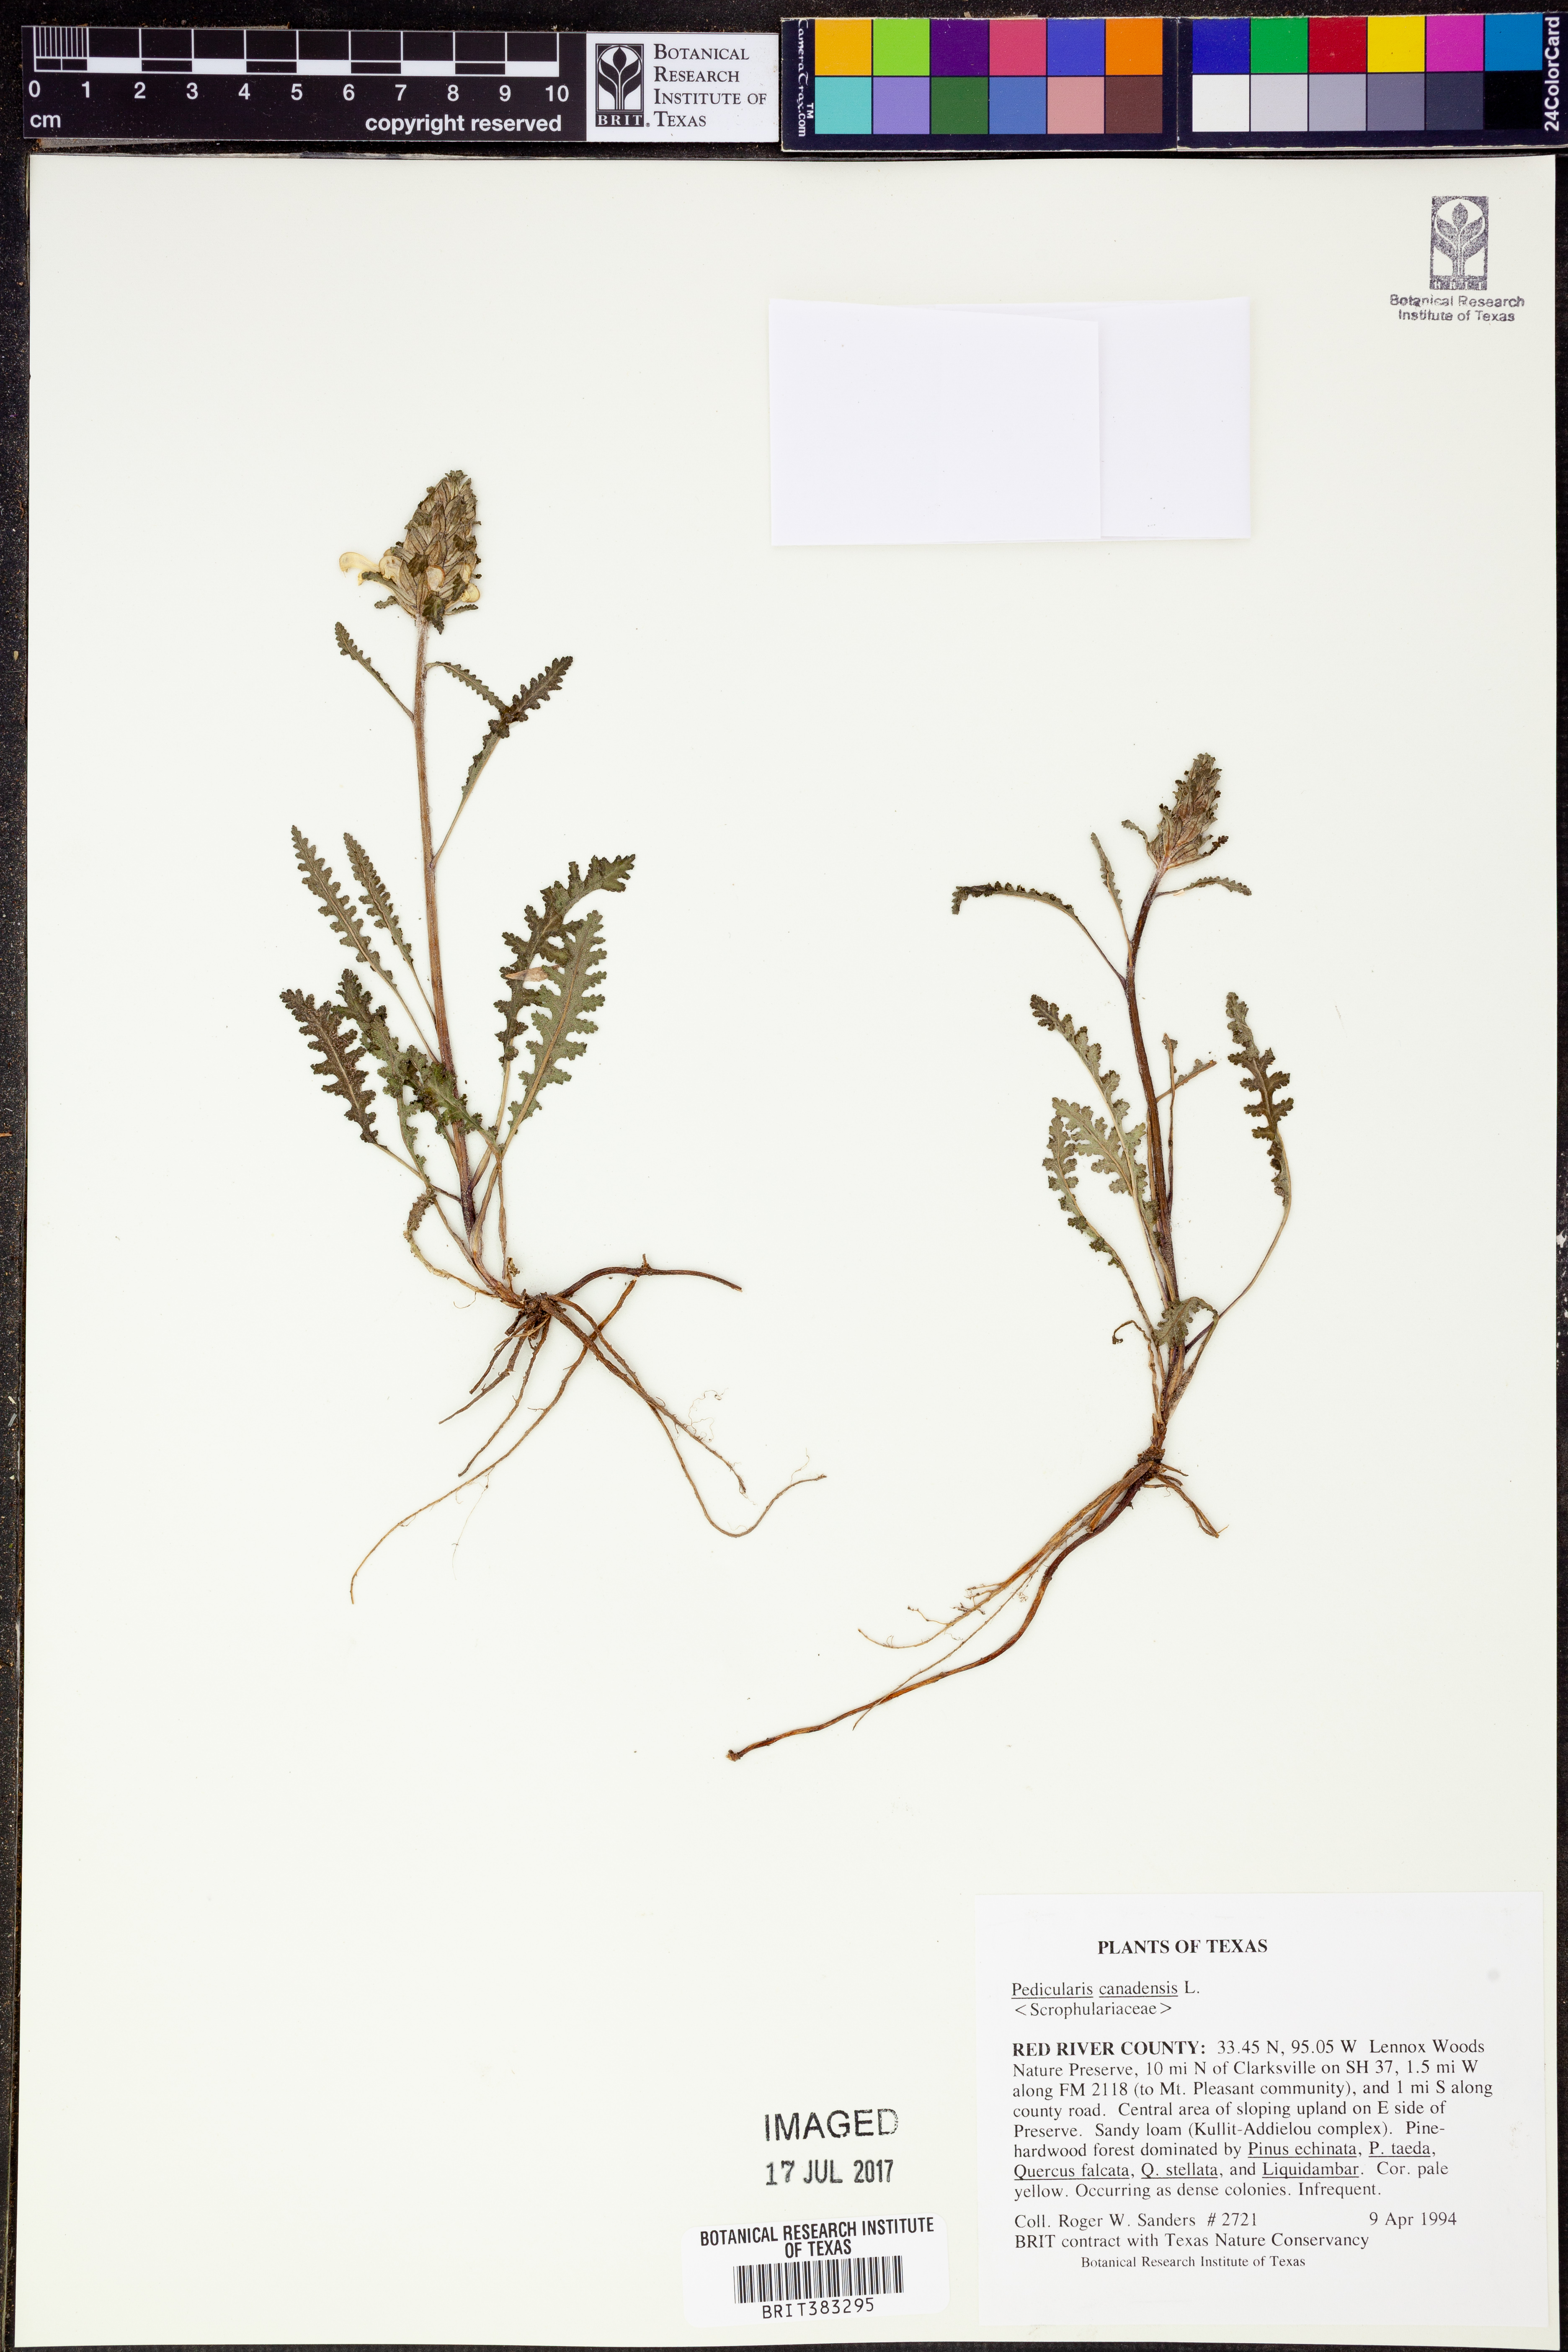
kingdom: Plantae
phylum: Tracheophyta
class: Magnoliopsida
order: Lamiales
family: Orobanchaceae
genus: Pedicularis
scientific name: Pedicularis canadensis
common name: Early lousewort
